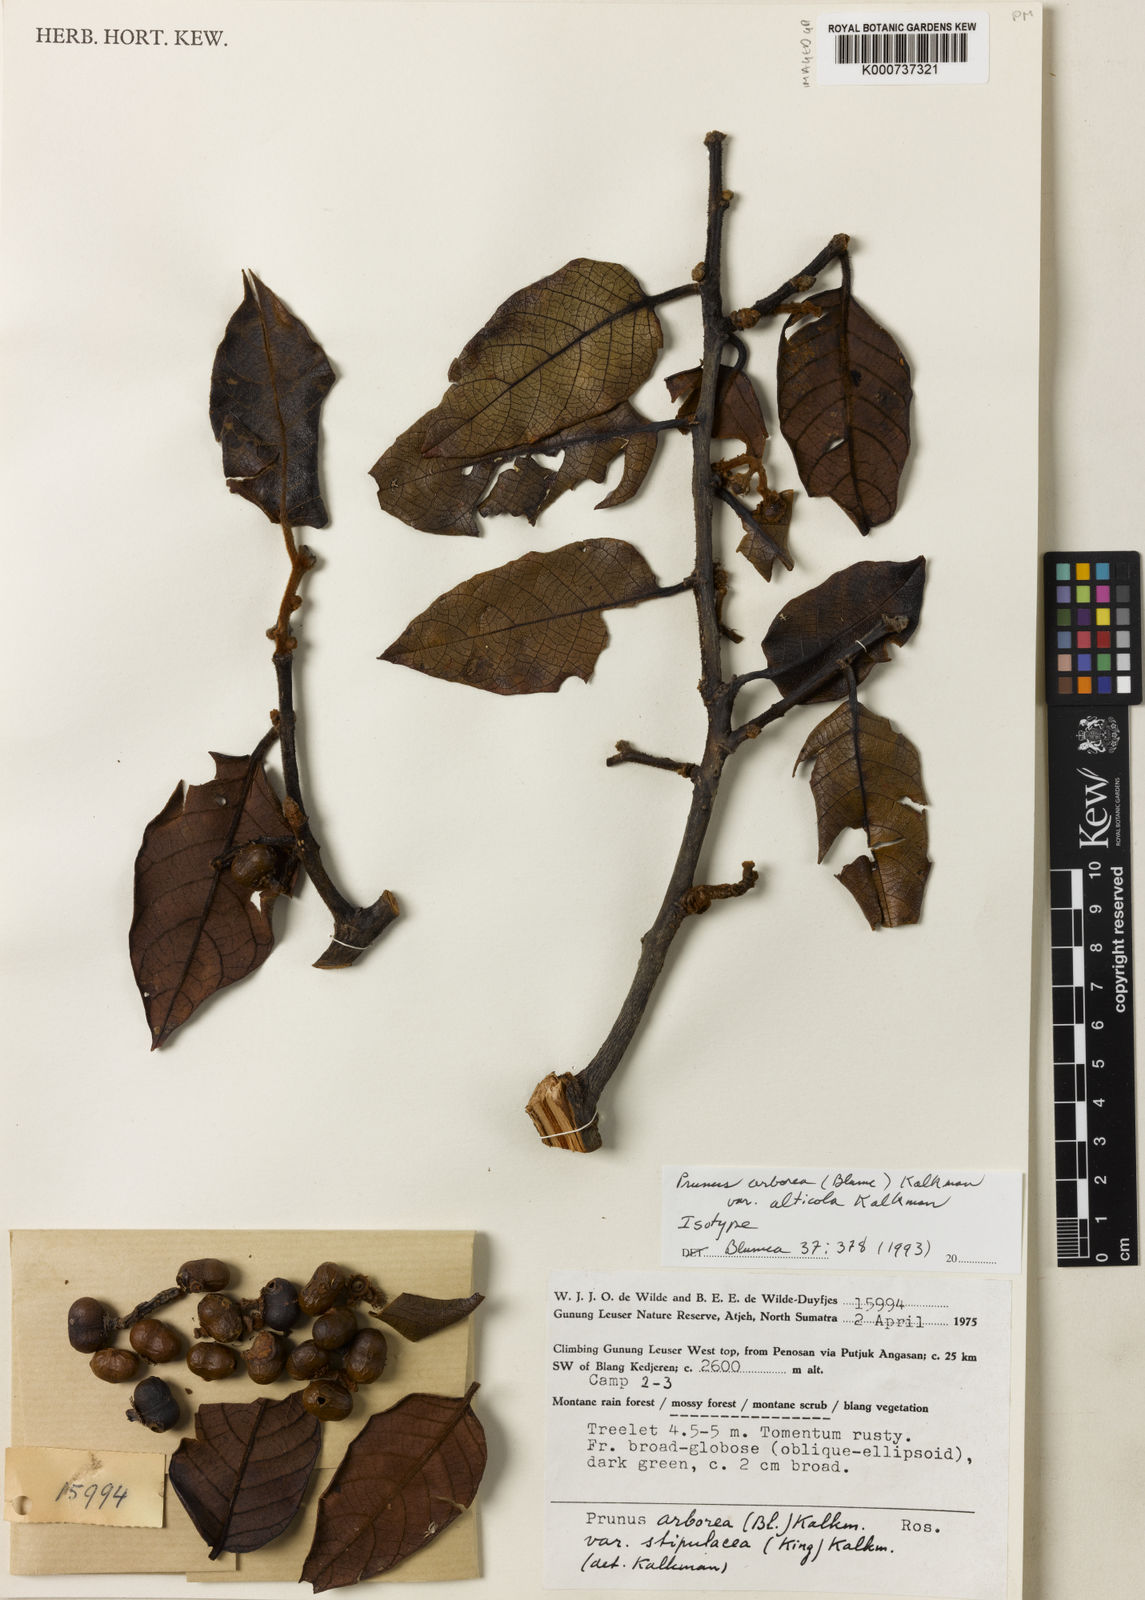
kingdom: Plantae
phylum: Tracheophyta
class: Magnoliopsida
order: Rosales
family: Rosaceae
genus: Prunus
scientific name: Prunus arborea
